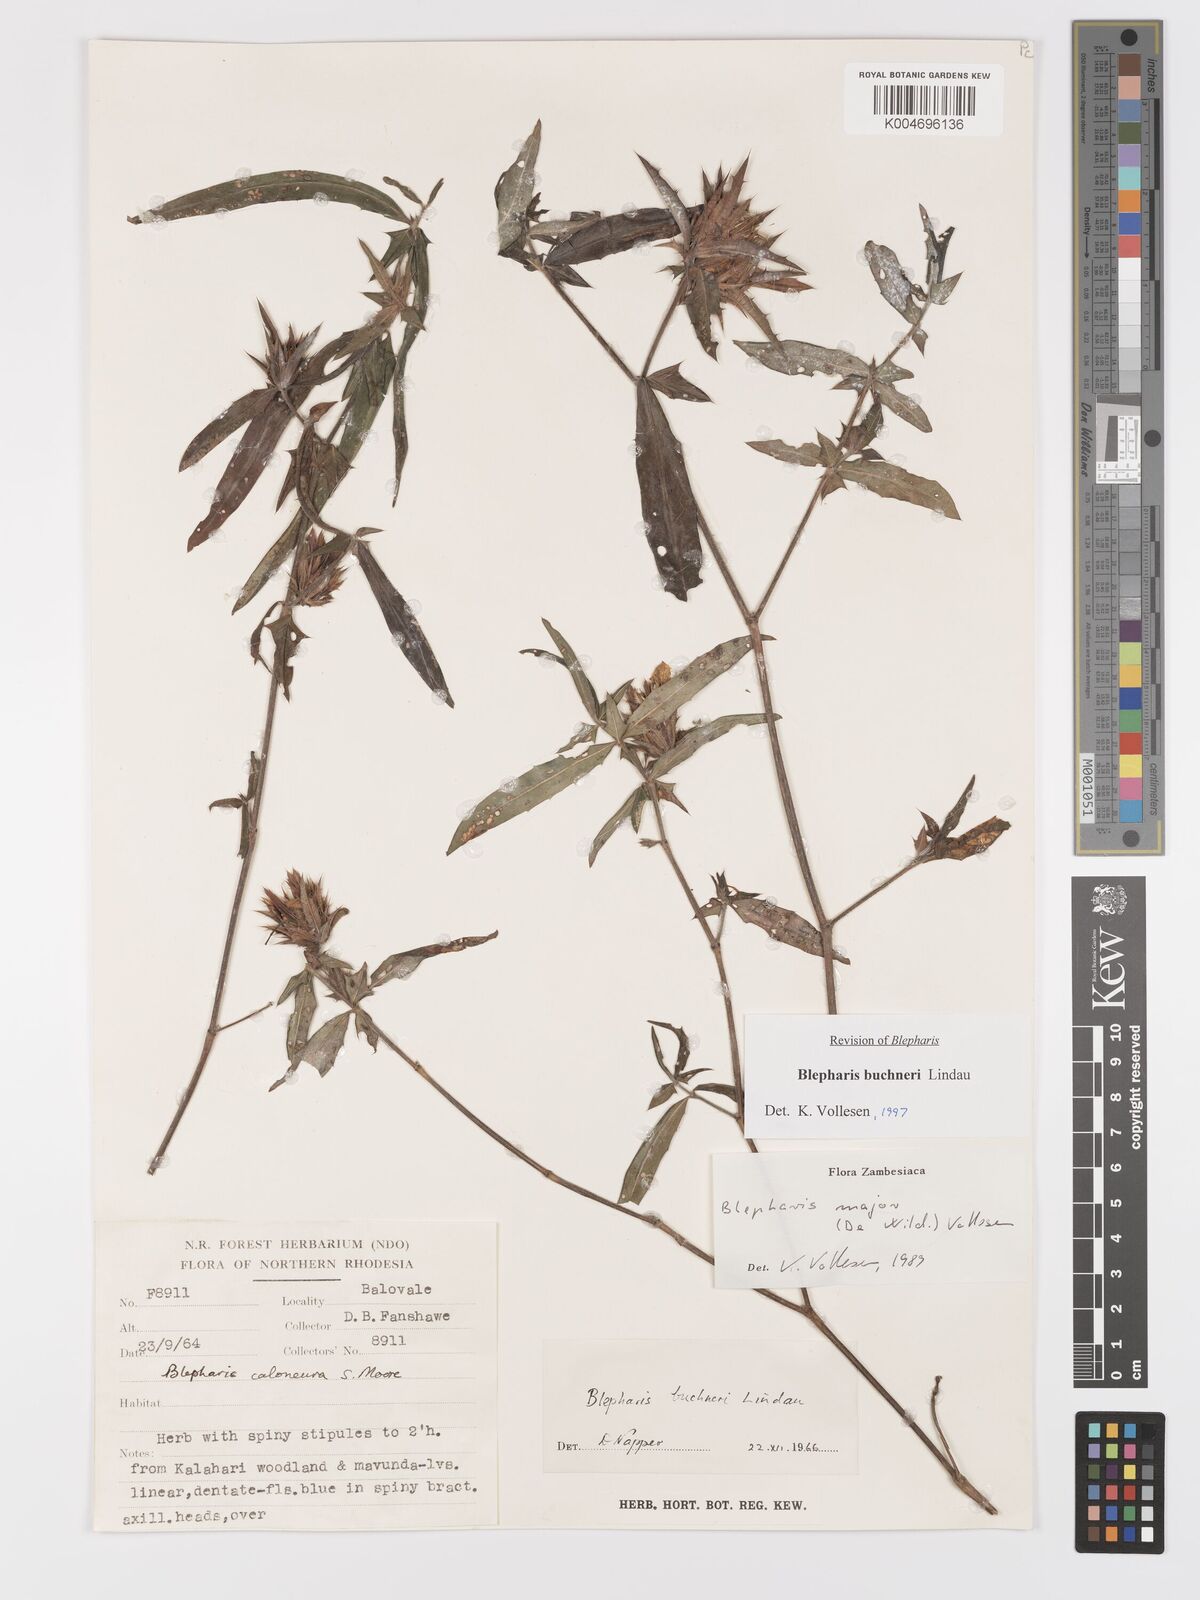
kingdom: Plantae
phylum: Tracheophyta
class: Magnoliopsida
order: Lamiales
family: Acanthaceae
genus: Blepharis
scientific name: Blepharis buchneri
